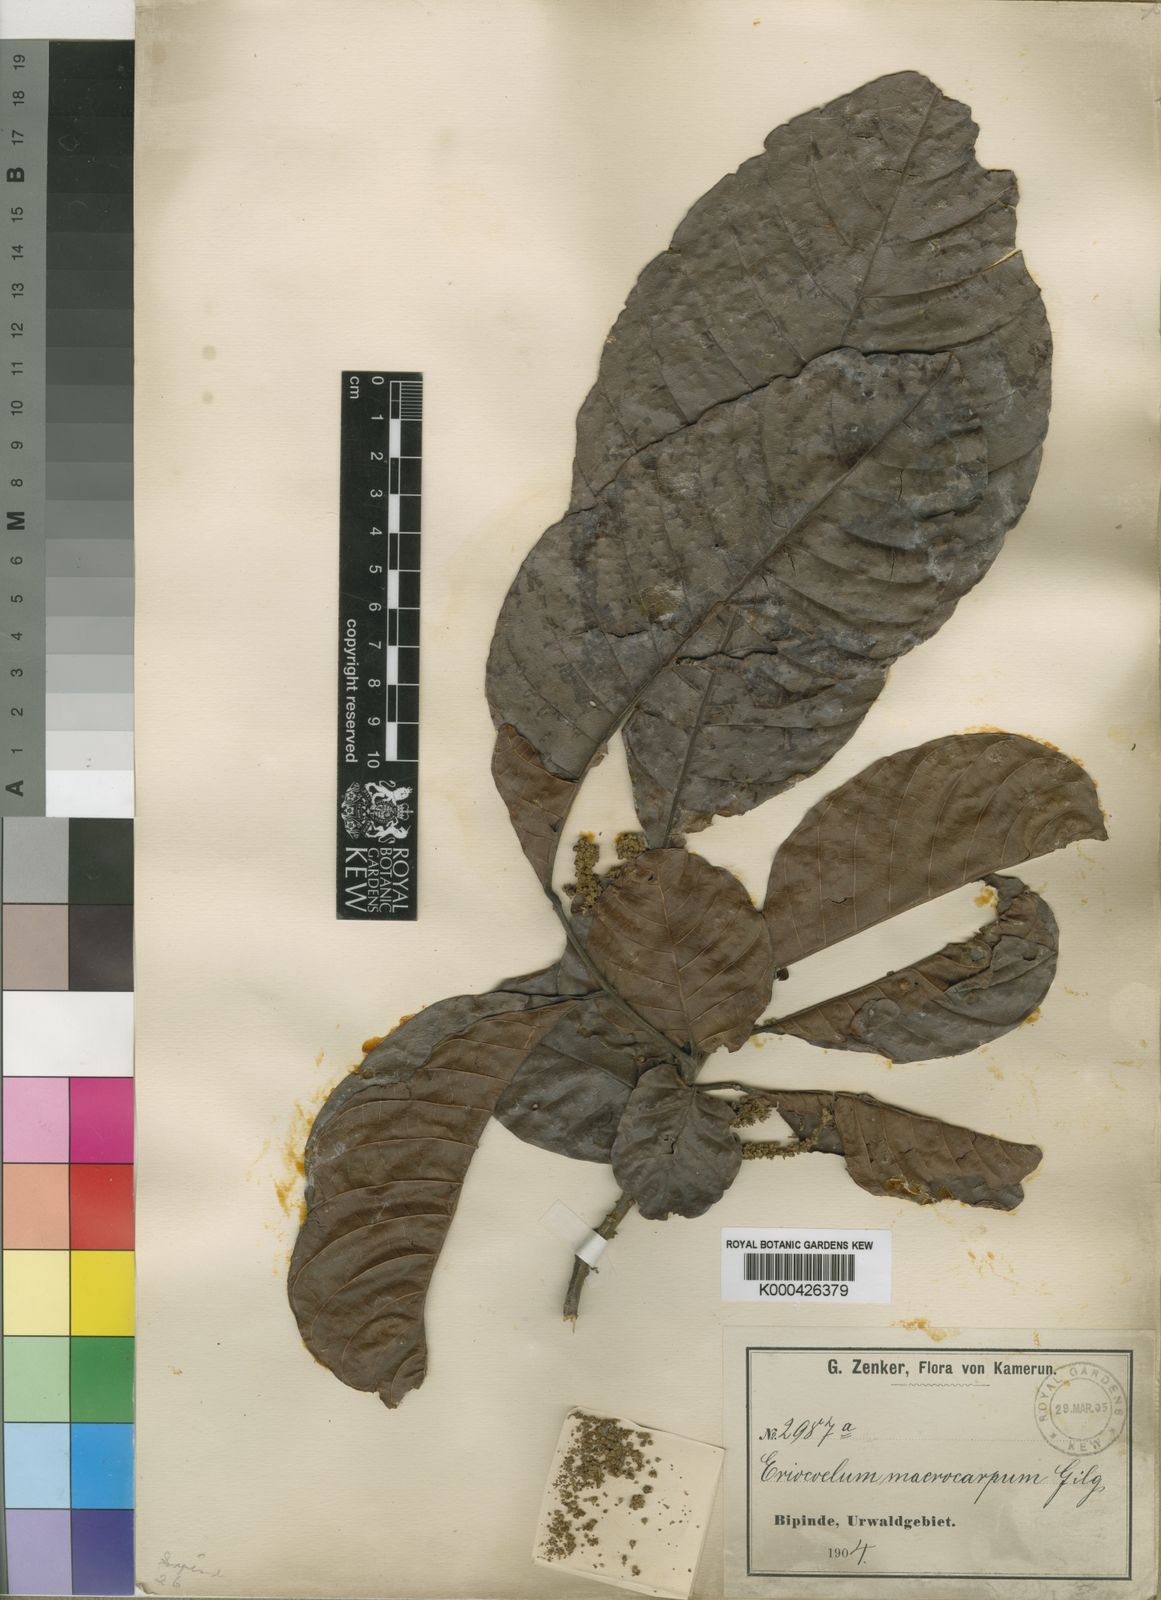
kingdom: Plantae
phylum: Tracheophyta
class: Magnoliopsida
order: Sapindales
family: Sapindaceae
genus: Eriocoelum
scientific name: Eriocoelum macrocarpum
